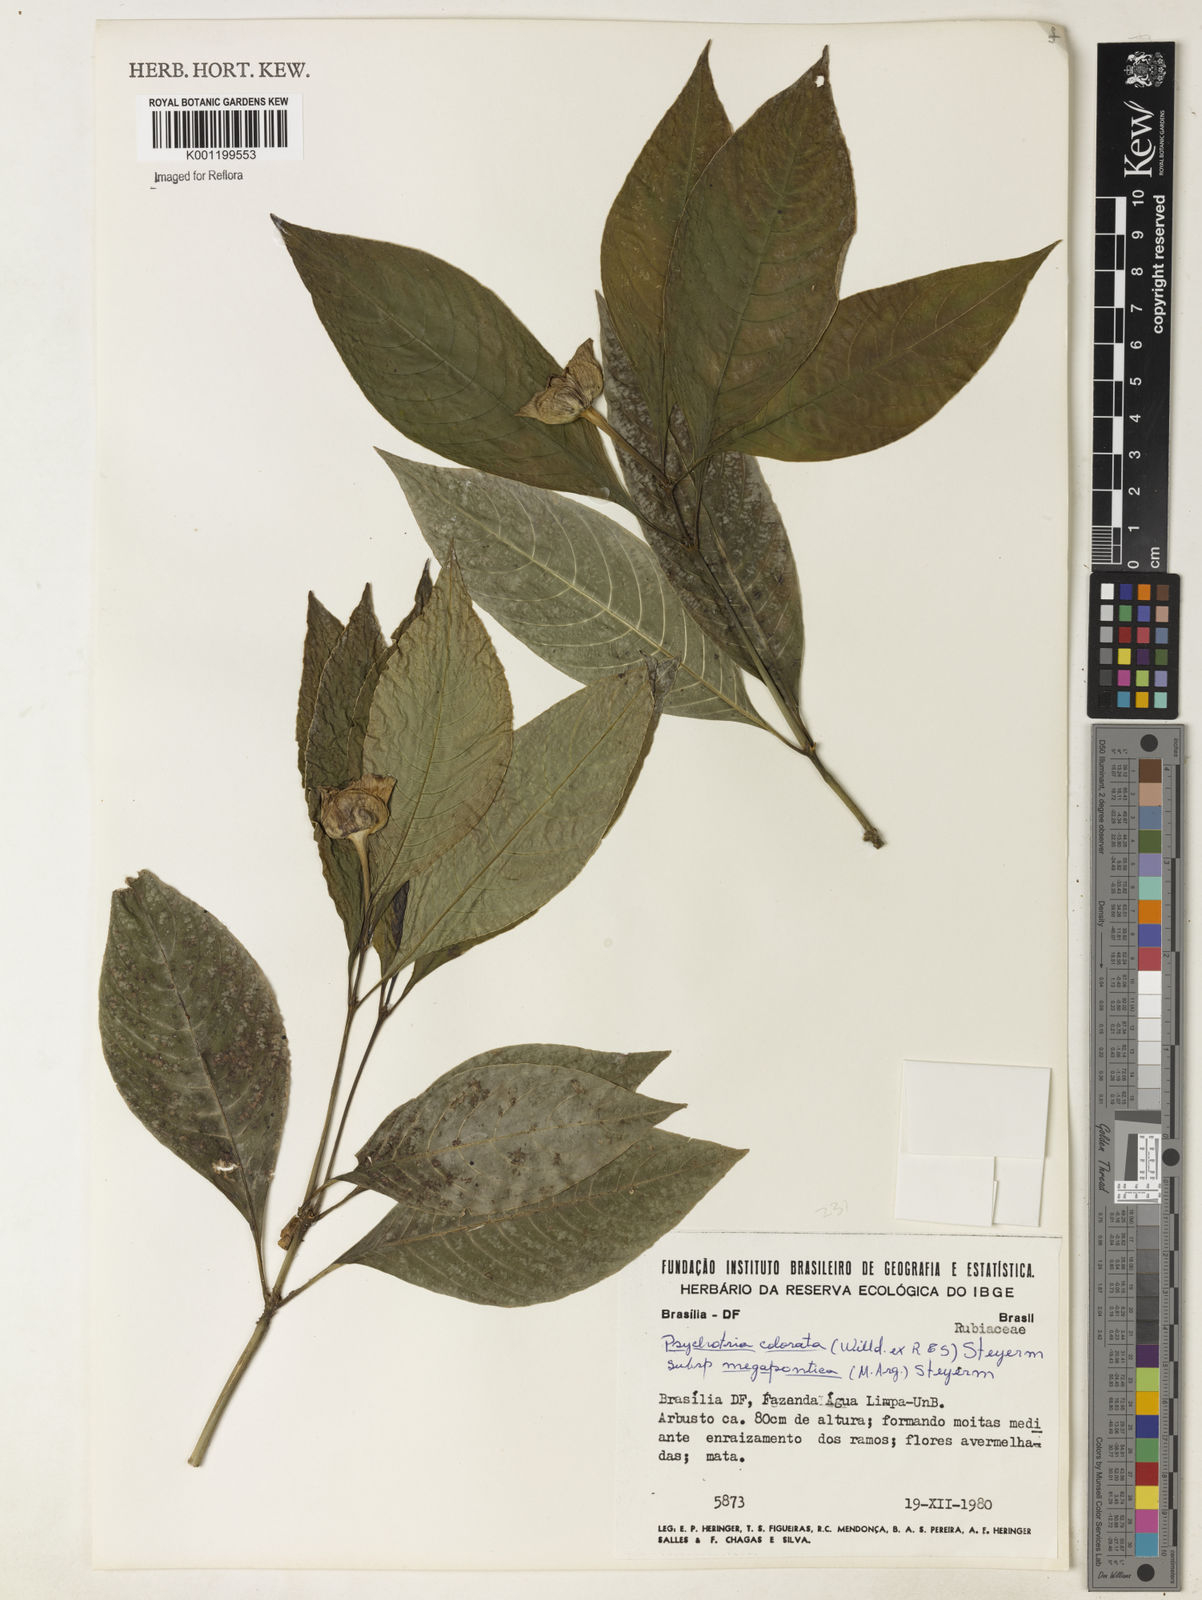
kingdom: Plantae
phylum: Tracheophyta
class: Magnoliopsida
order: Gentianales
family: Rubiaceae
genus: Psychotria
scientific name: Psychotria
